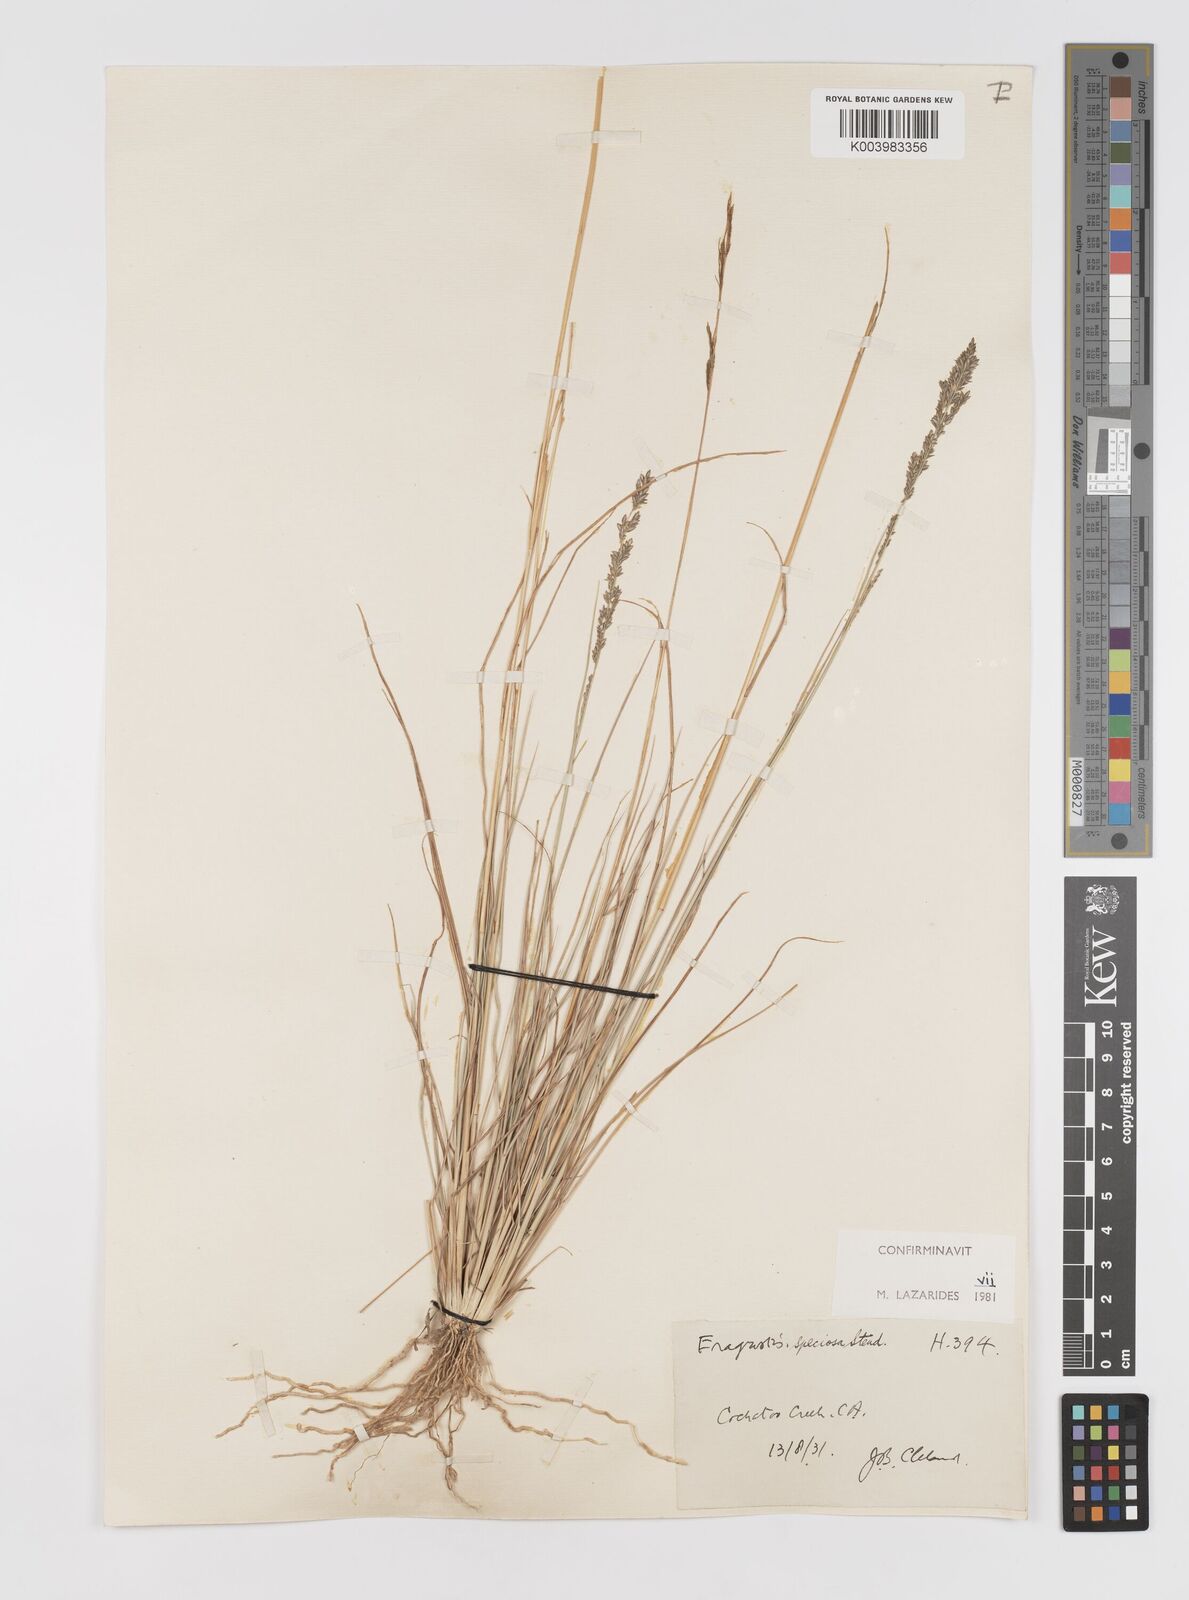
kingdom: Plantae
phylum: Tracheophyta
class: Liliopsida
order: Poales
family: Poaceae
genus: Eragrostis
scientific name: Eragrostis speciosa
